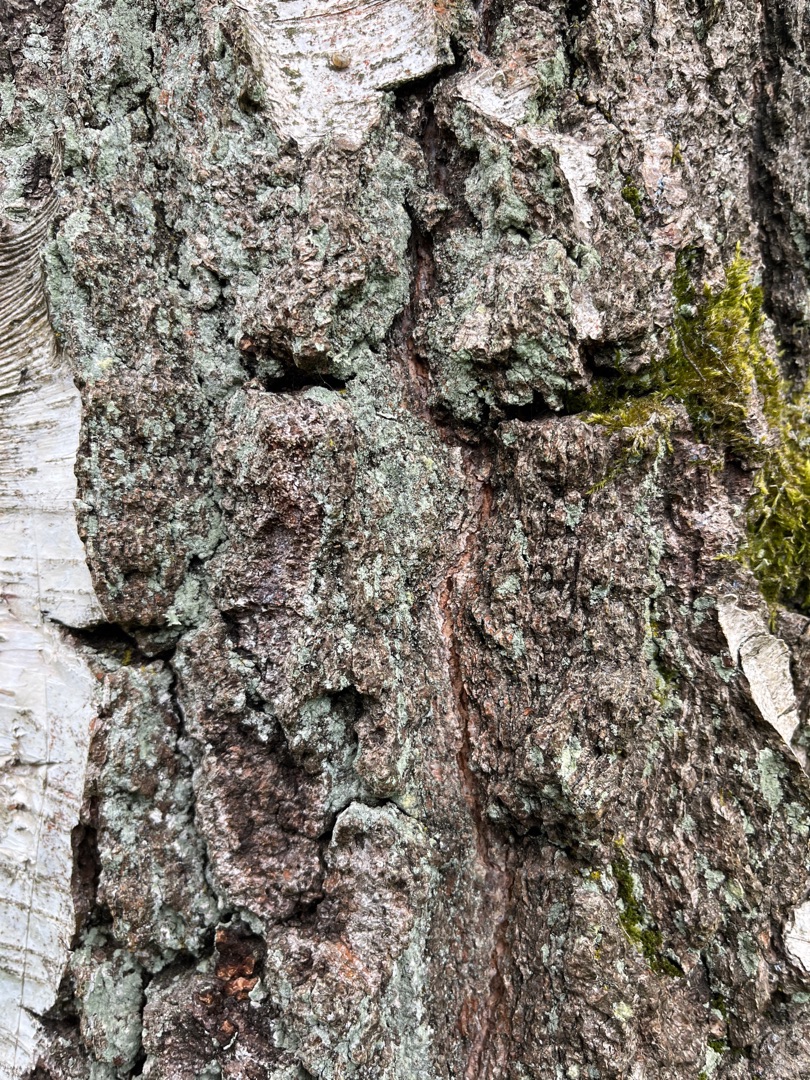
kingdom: Fungi
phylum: Ascomycota
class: Lecanoromycetes
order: Lecanorales
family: Stereocaulaceae
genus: Lepraria
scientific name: Lepraria
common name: Støvlav
